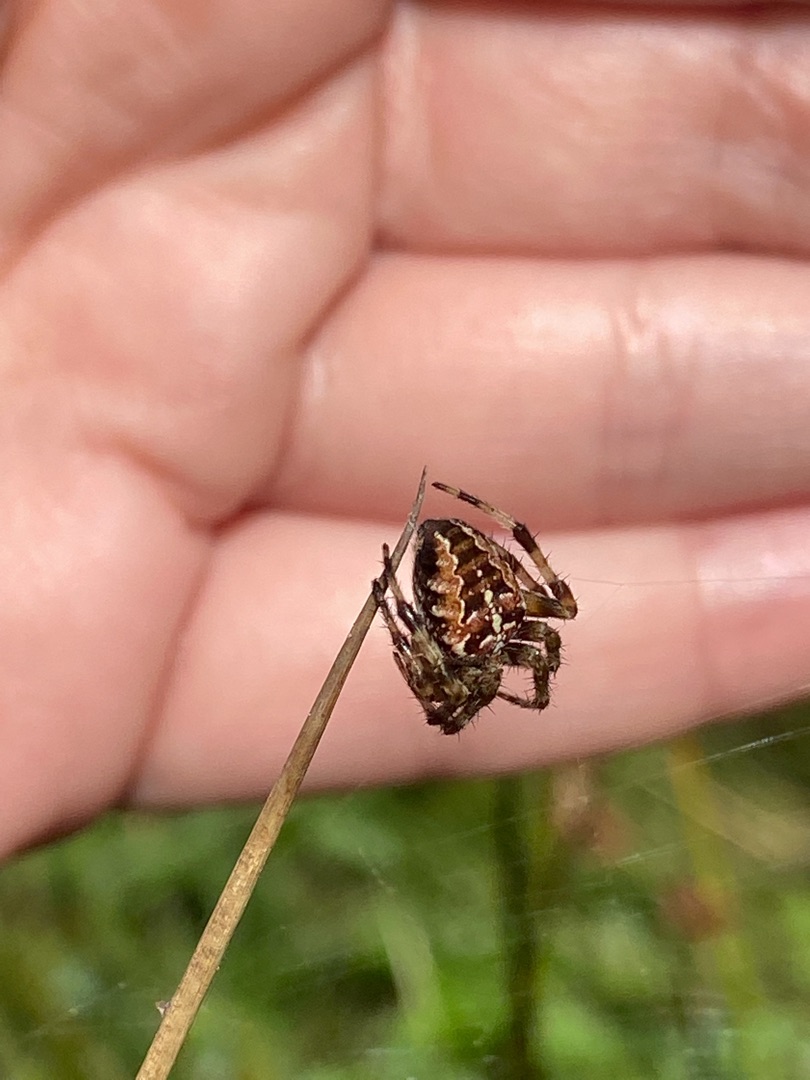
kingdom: Animalia
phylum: Arthropoda
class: Arachnida
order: Araneae
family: Araneidae
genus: Araneus
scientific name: Araneus diadematus
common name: Korsedderkop
